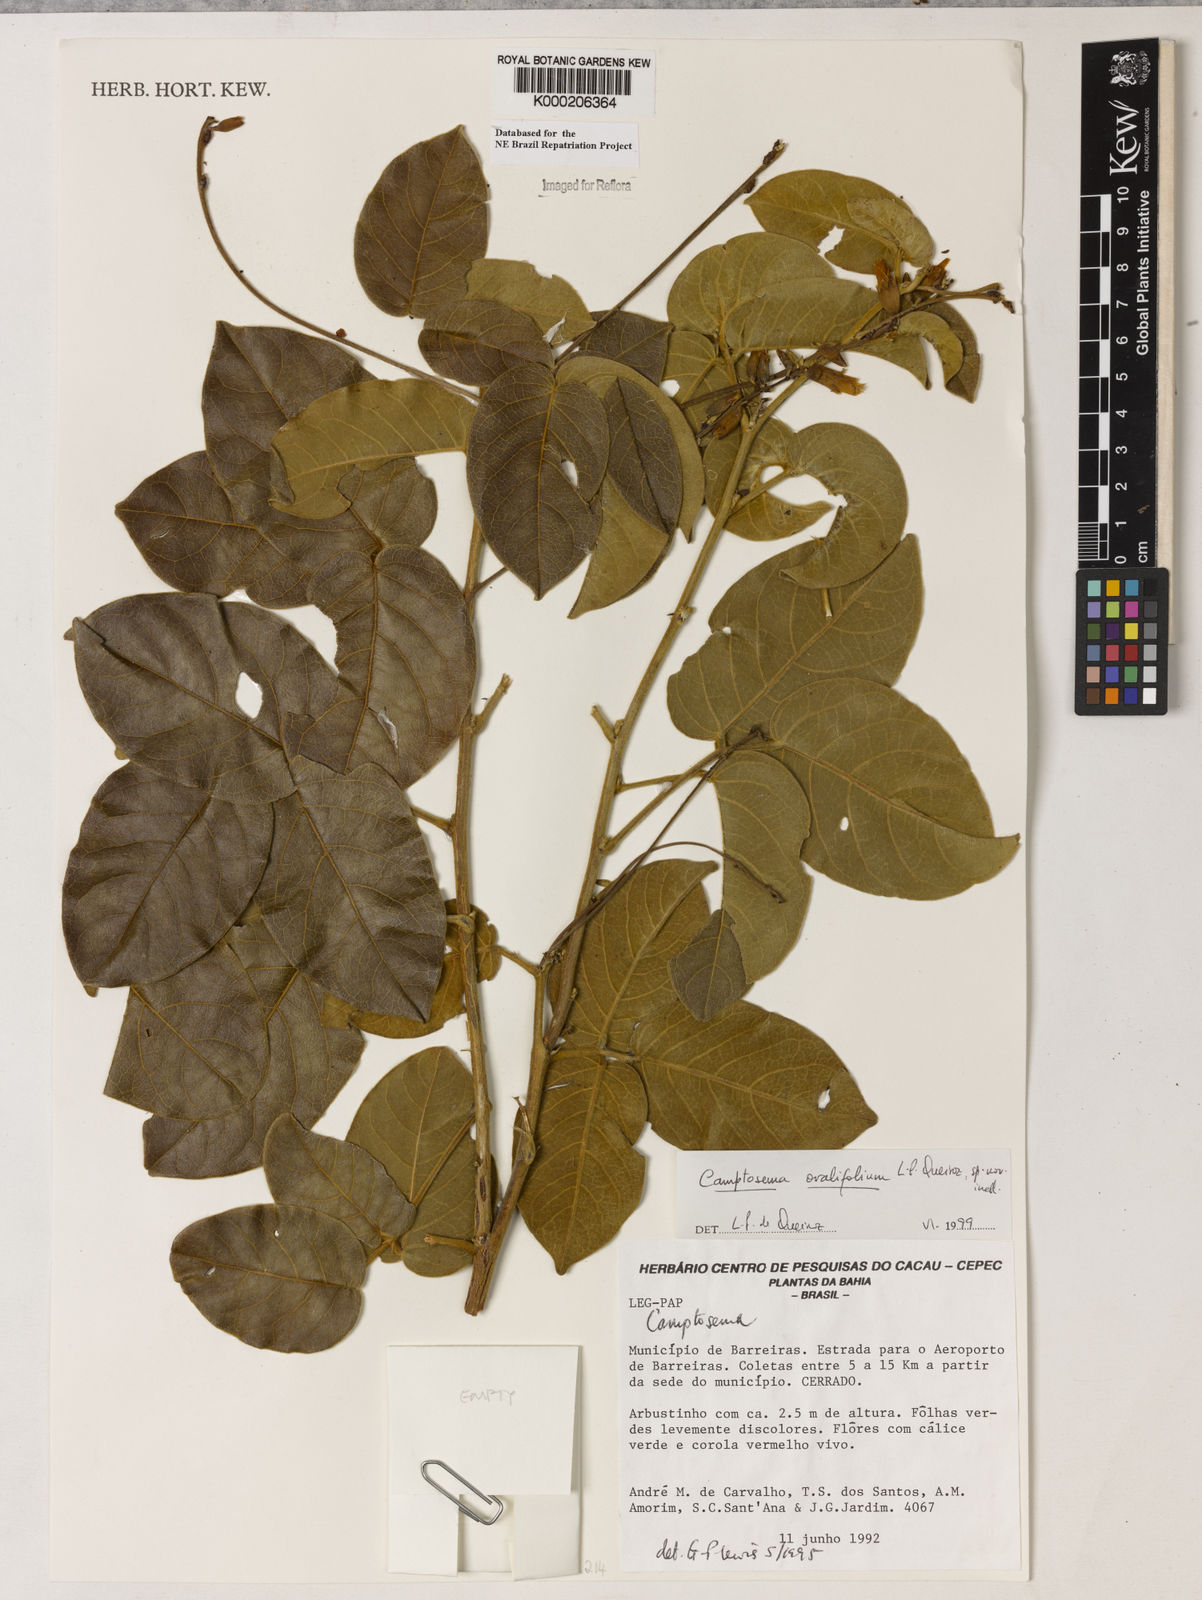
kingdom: Plantae
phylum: Tracheophyta
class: Magnoliopsida
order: Fabales
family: Fabaceae
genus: Camptosema
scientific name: Camptosema
